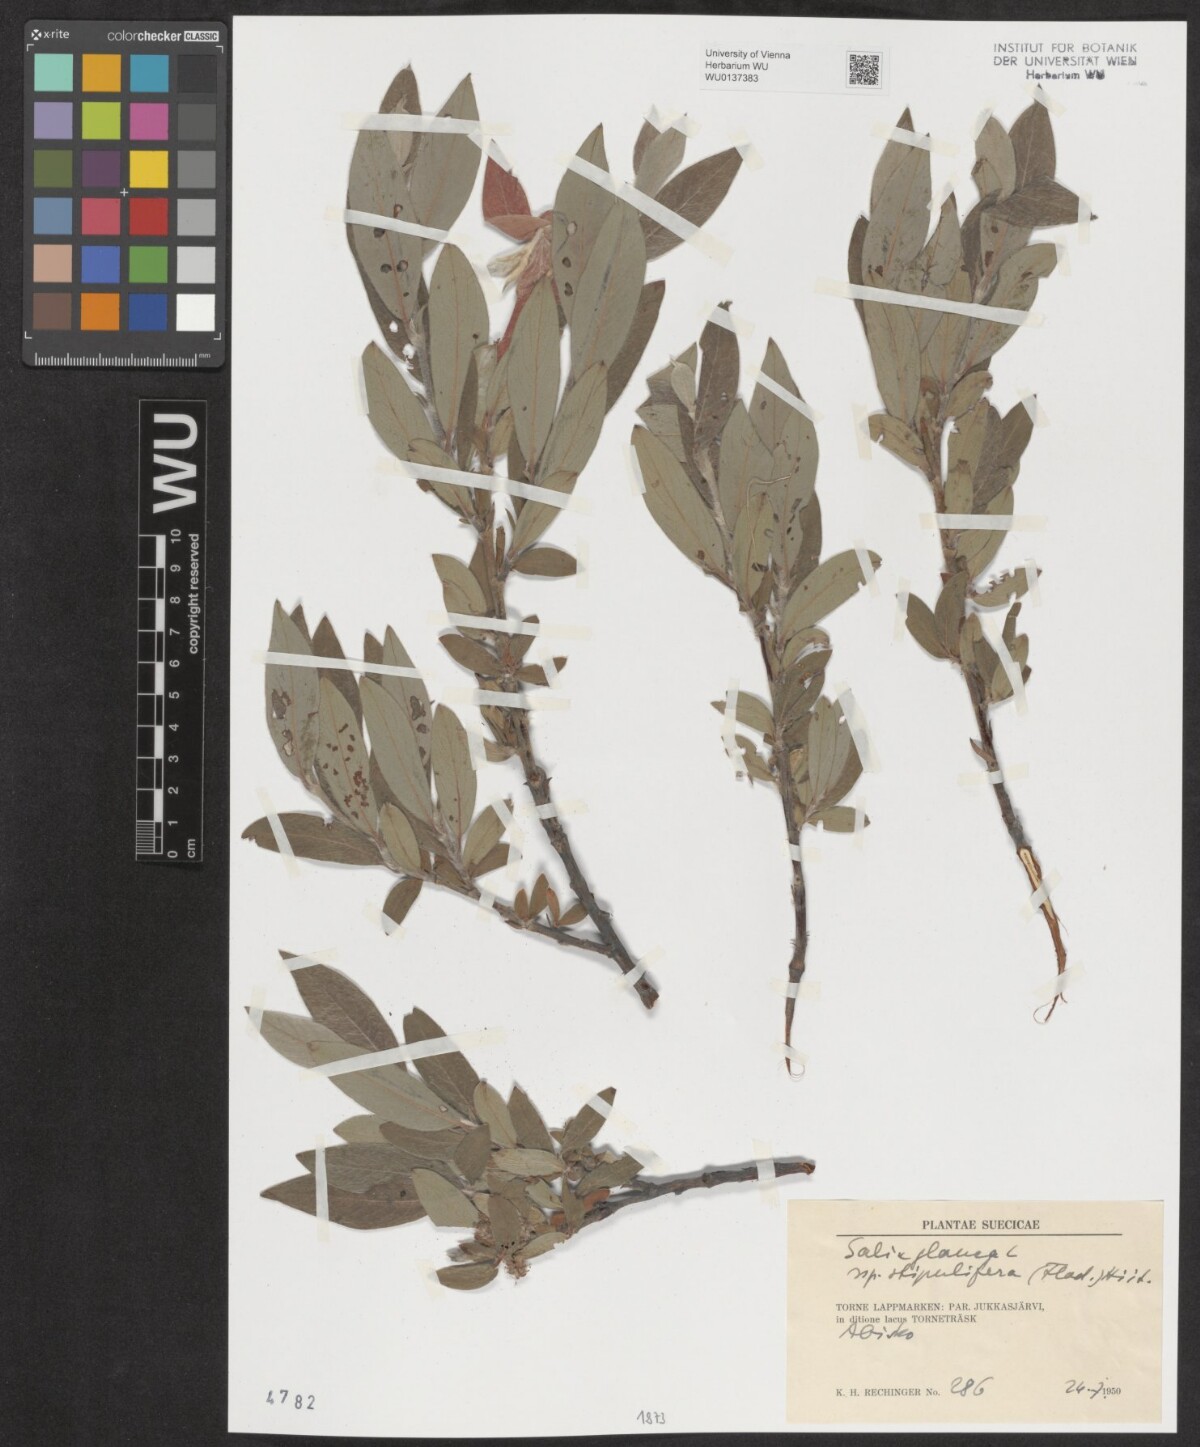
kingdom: Plantae
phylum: Tracheophyta
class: Magnoliopsida
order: Malpighiales
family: Salicaceae
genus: Salix
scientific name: Salix glauca
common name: Glaucous willow
